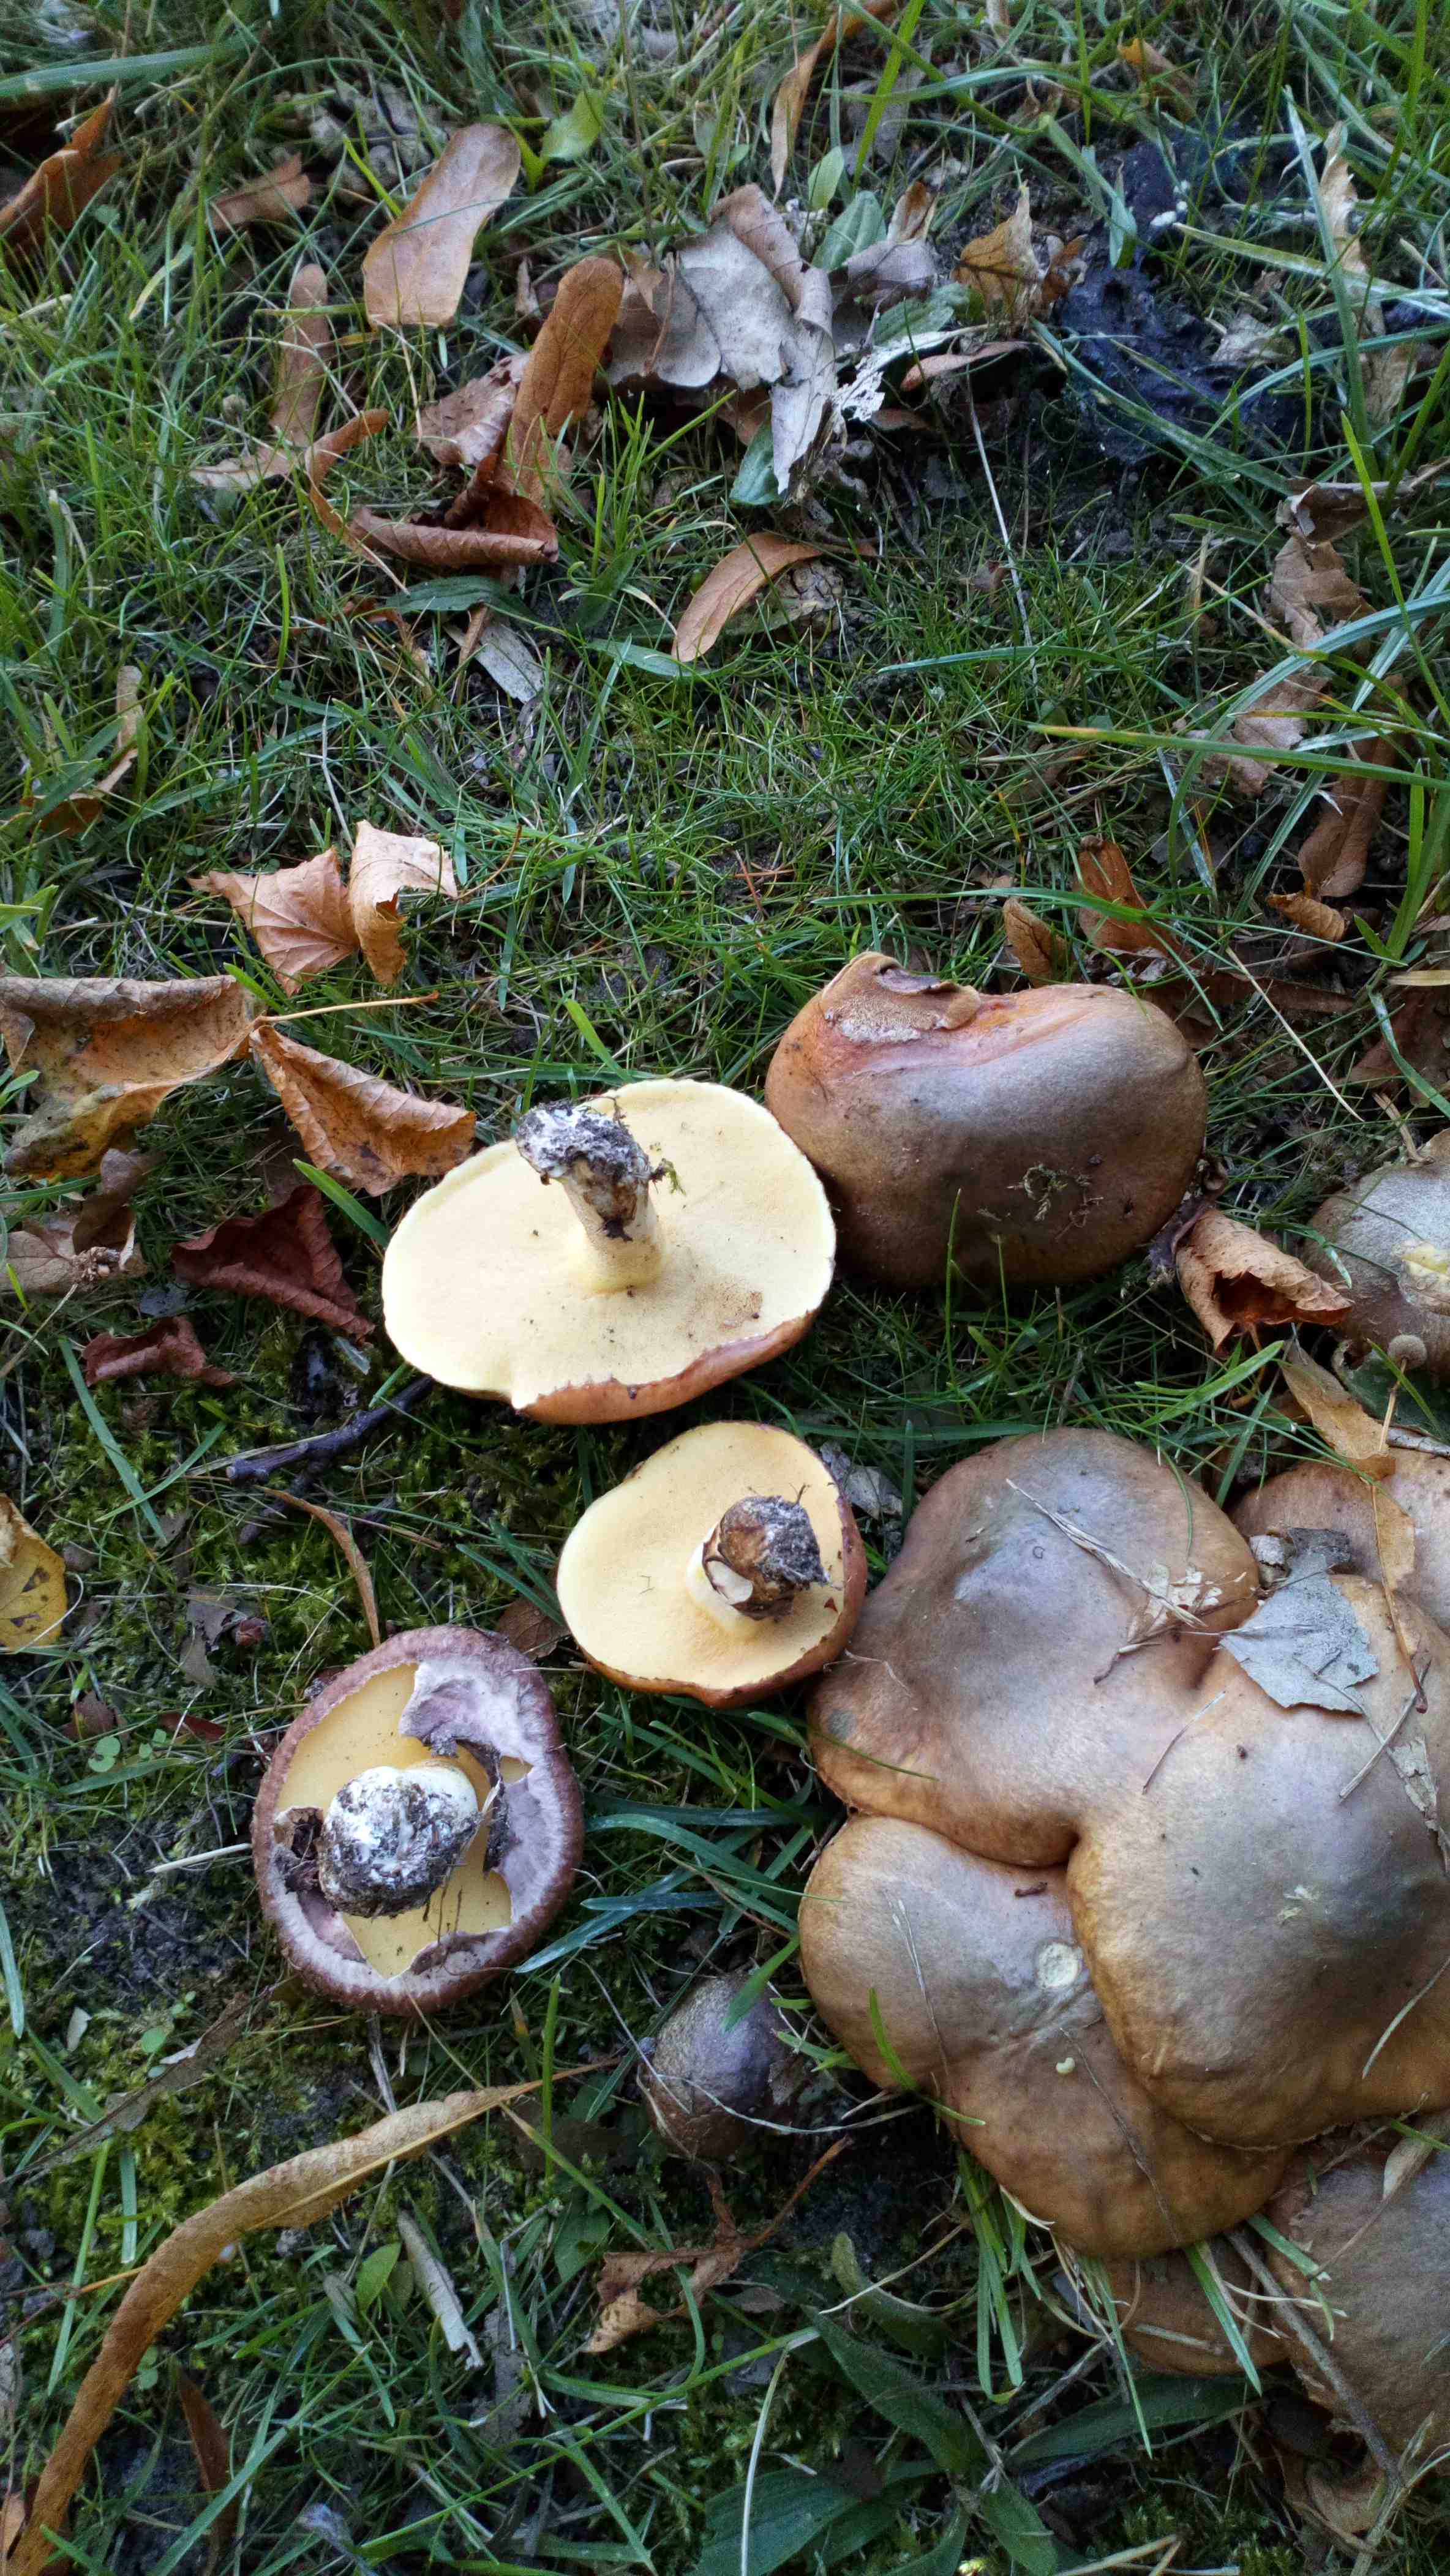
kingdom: Fungi
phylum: Basidiomycota
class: Agaricomycetes
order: Boletales
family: Suillaceae
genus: Suillus
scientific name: Suillus luteus
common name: brungul slimrørhat
